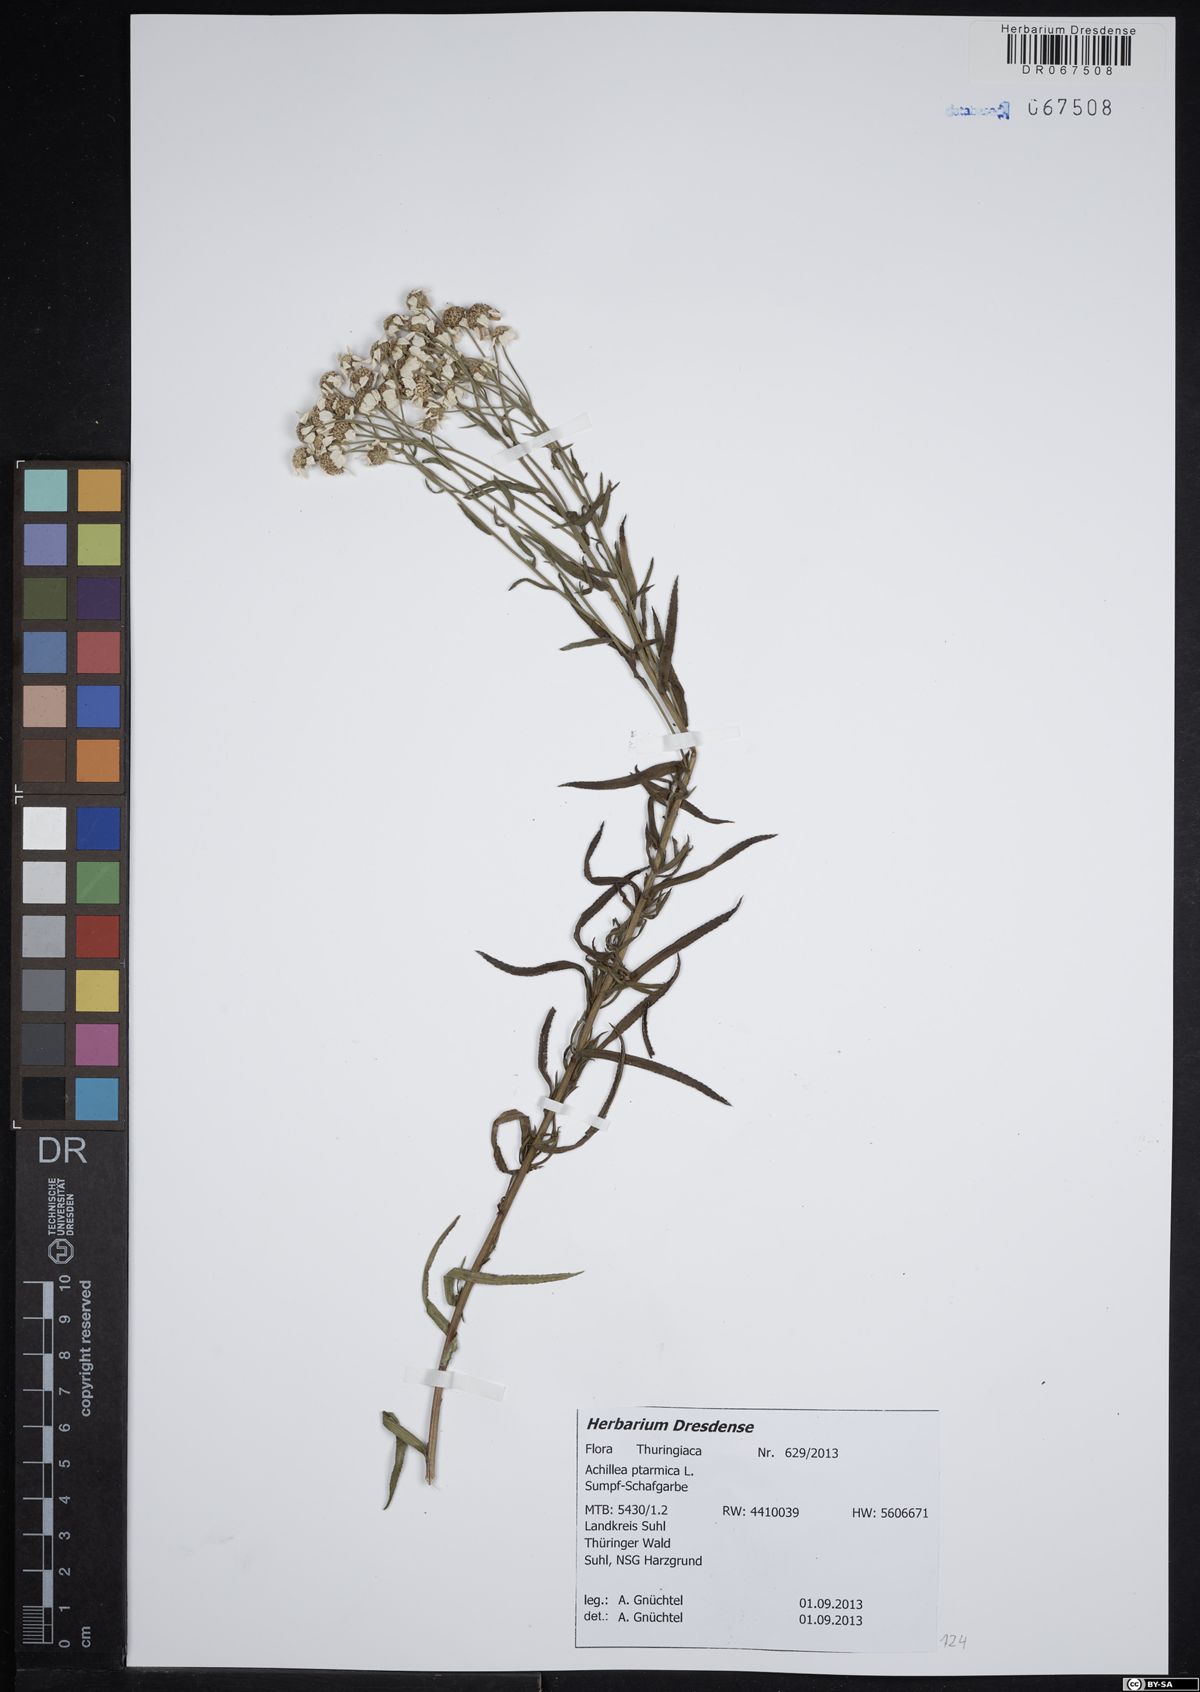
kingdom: Plantae
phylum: Tracheophyta
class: Magnoliopsida
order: Asterales
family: Asteraceae
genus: Achillea
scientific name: Achillea ptarmica
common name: Sneezeweed
